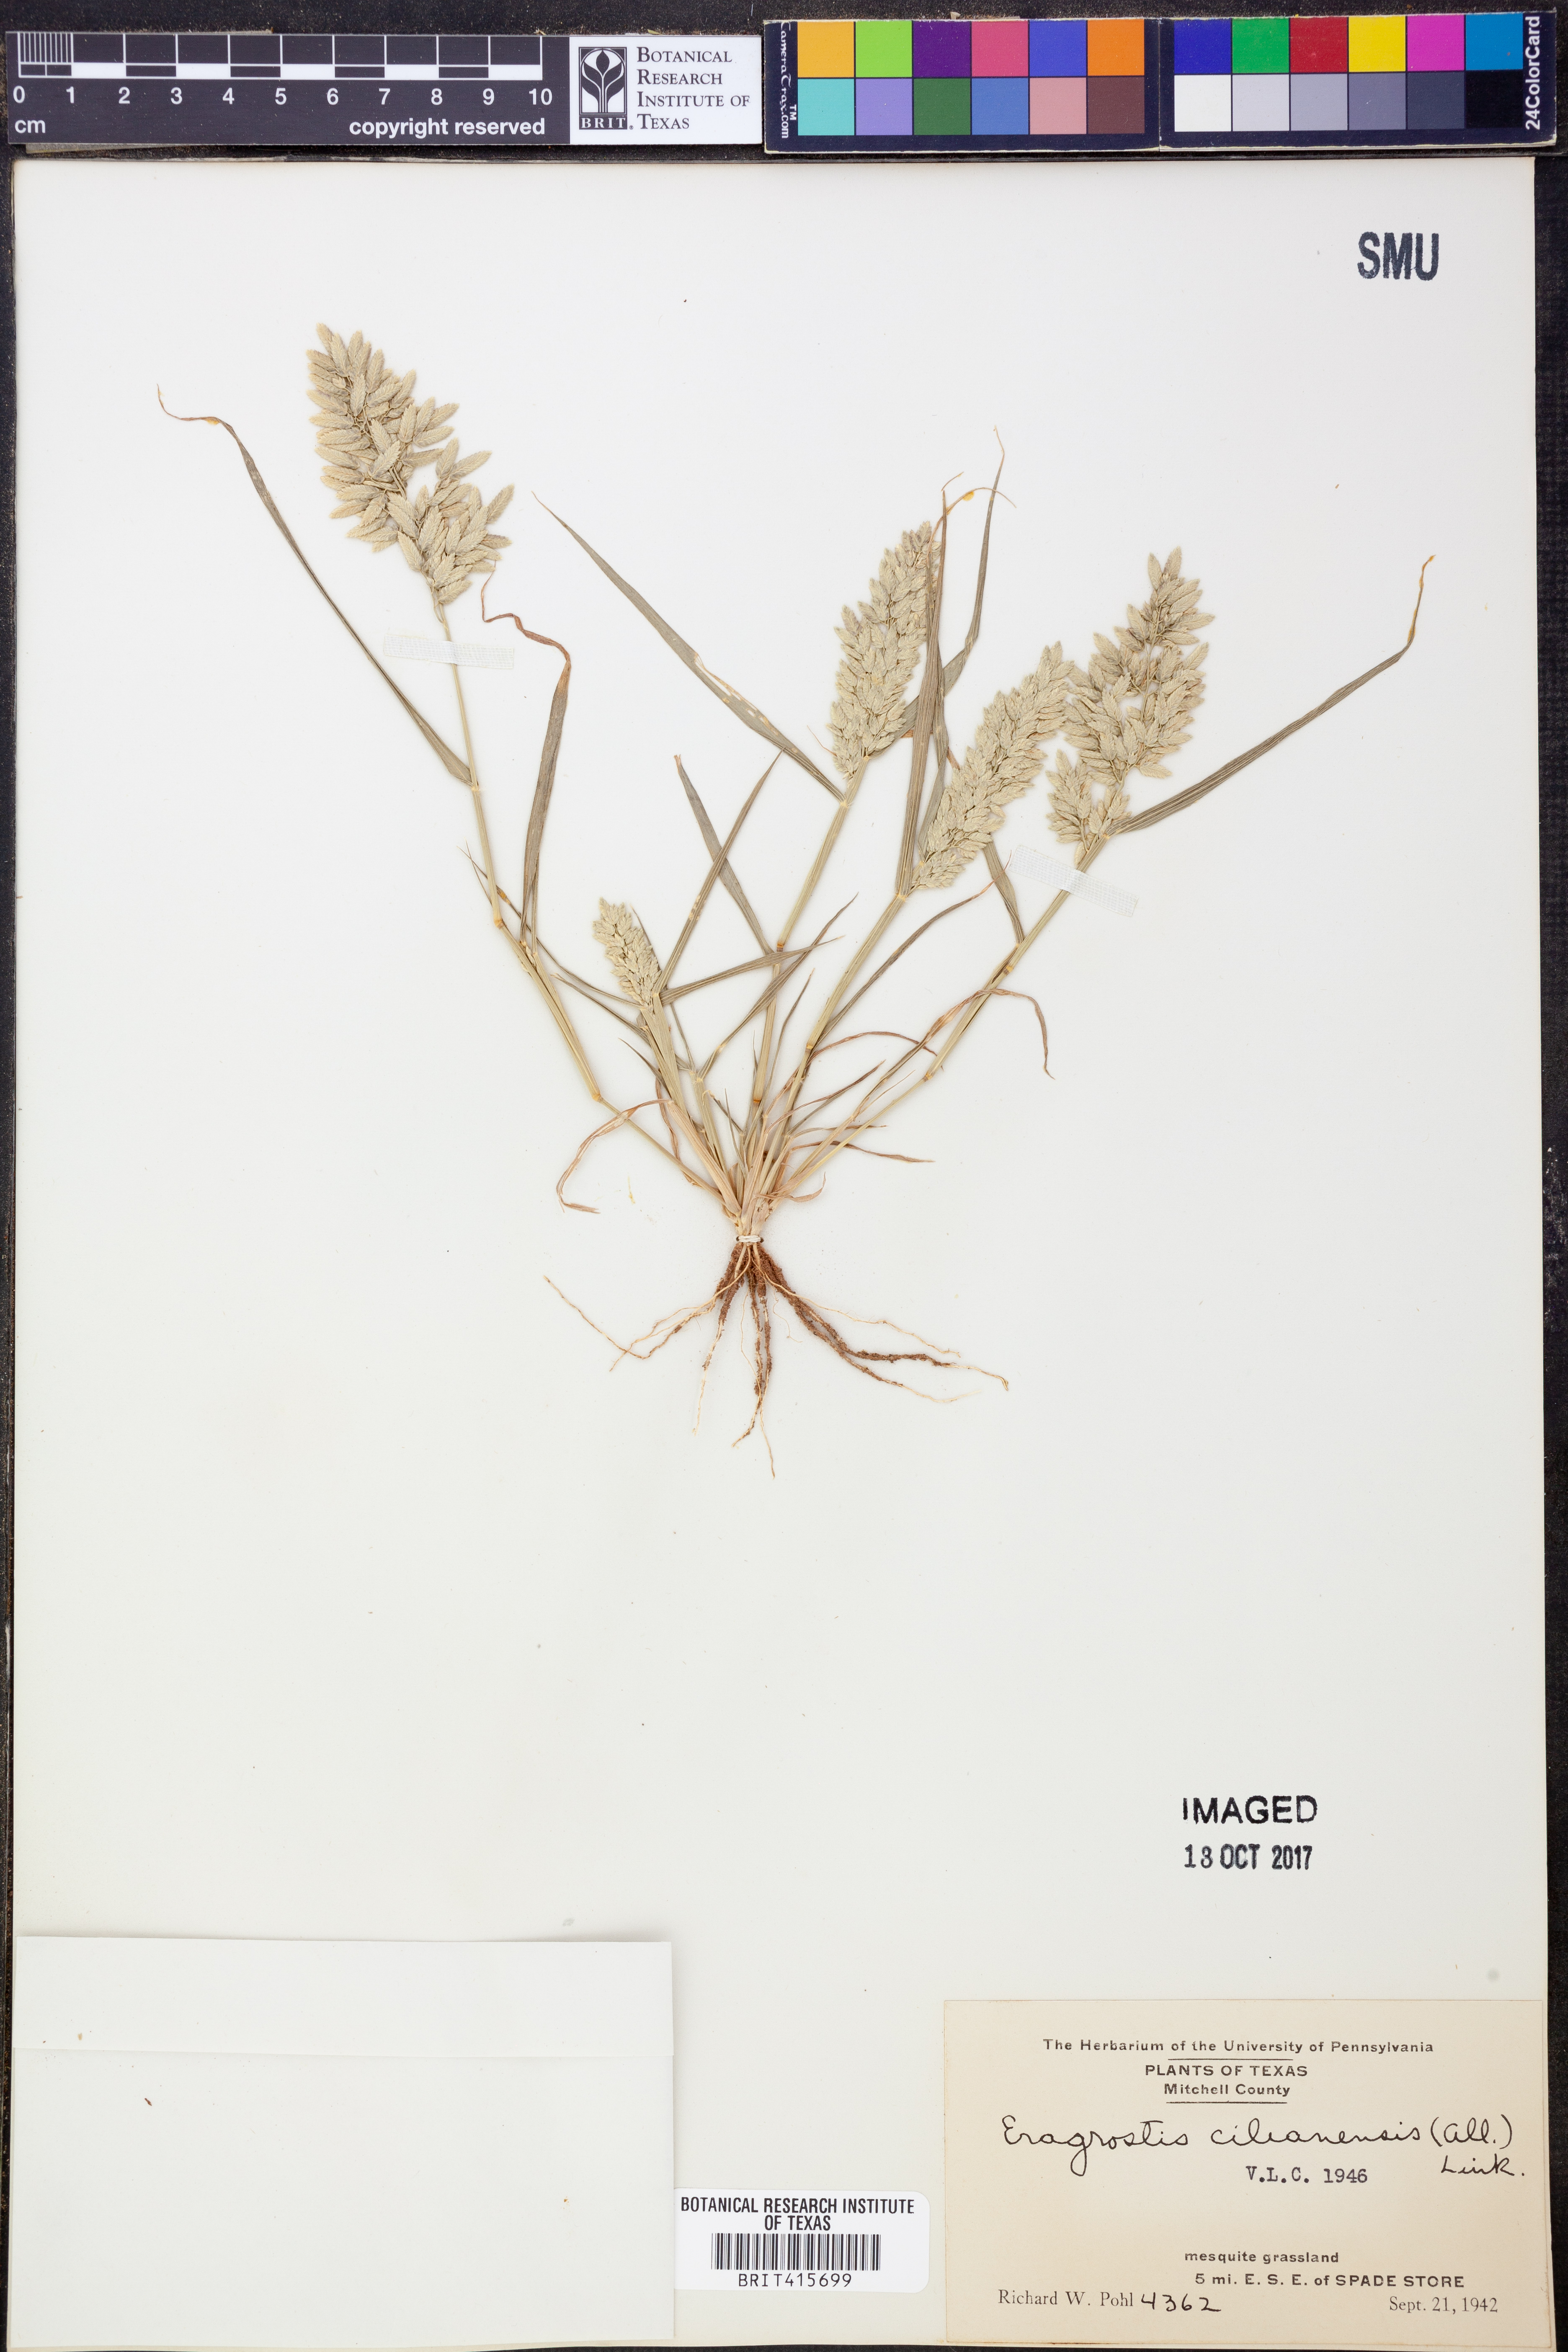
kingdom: Plantae
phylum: Tracheophyta
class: Liliopsida
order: Poales
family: Poaceae
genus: Eragrostis
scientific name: Eragrostis cilianensis
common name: Stinkgrass
